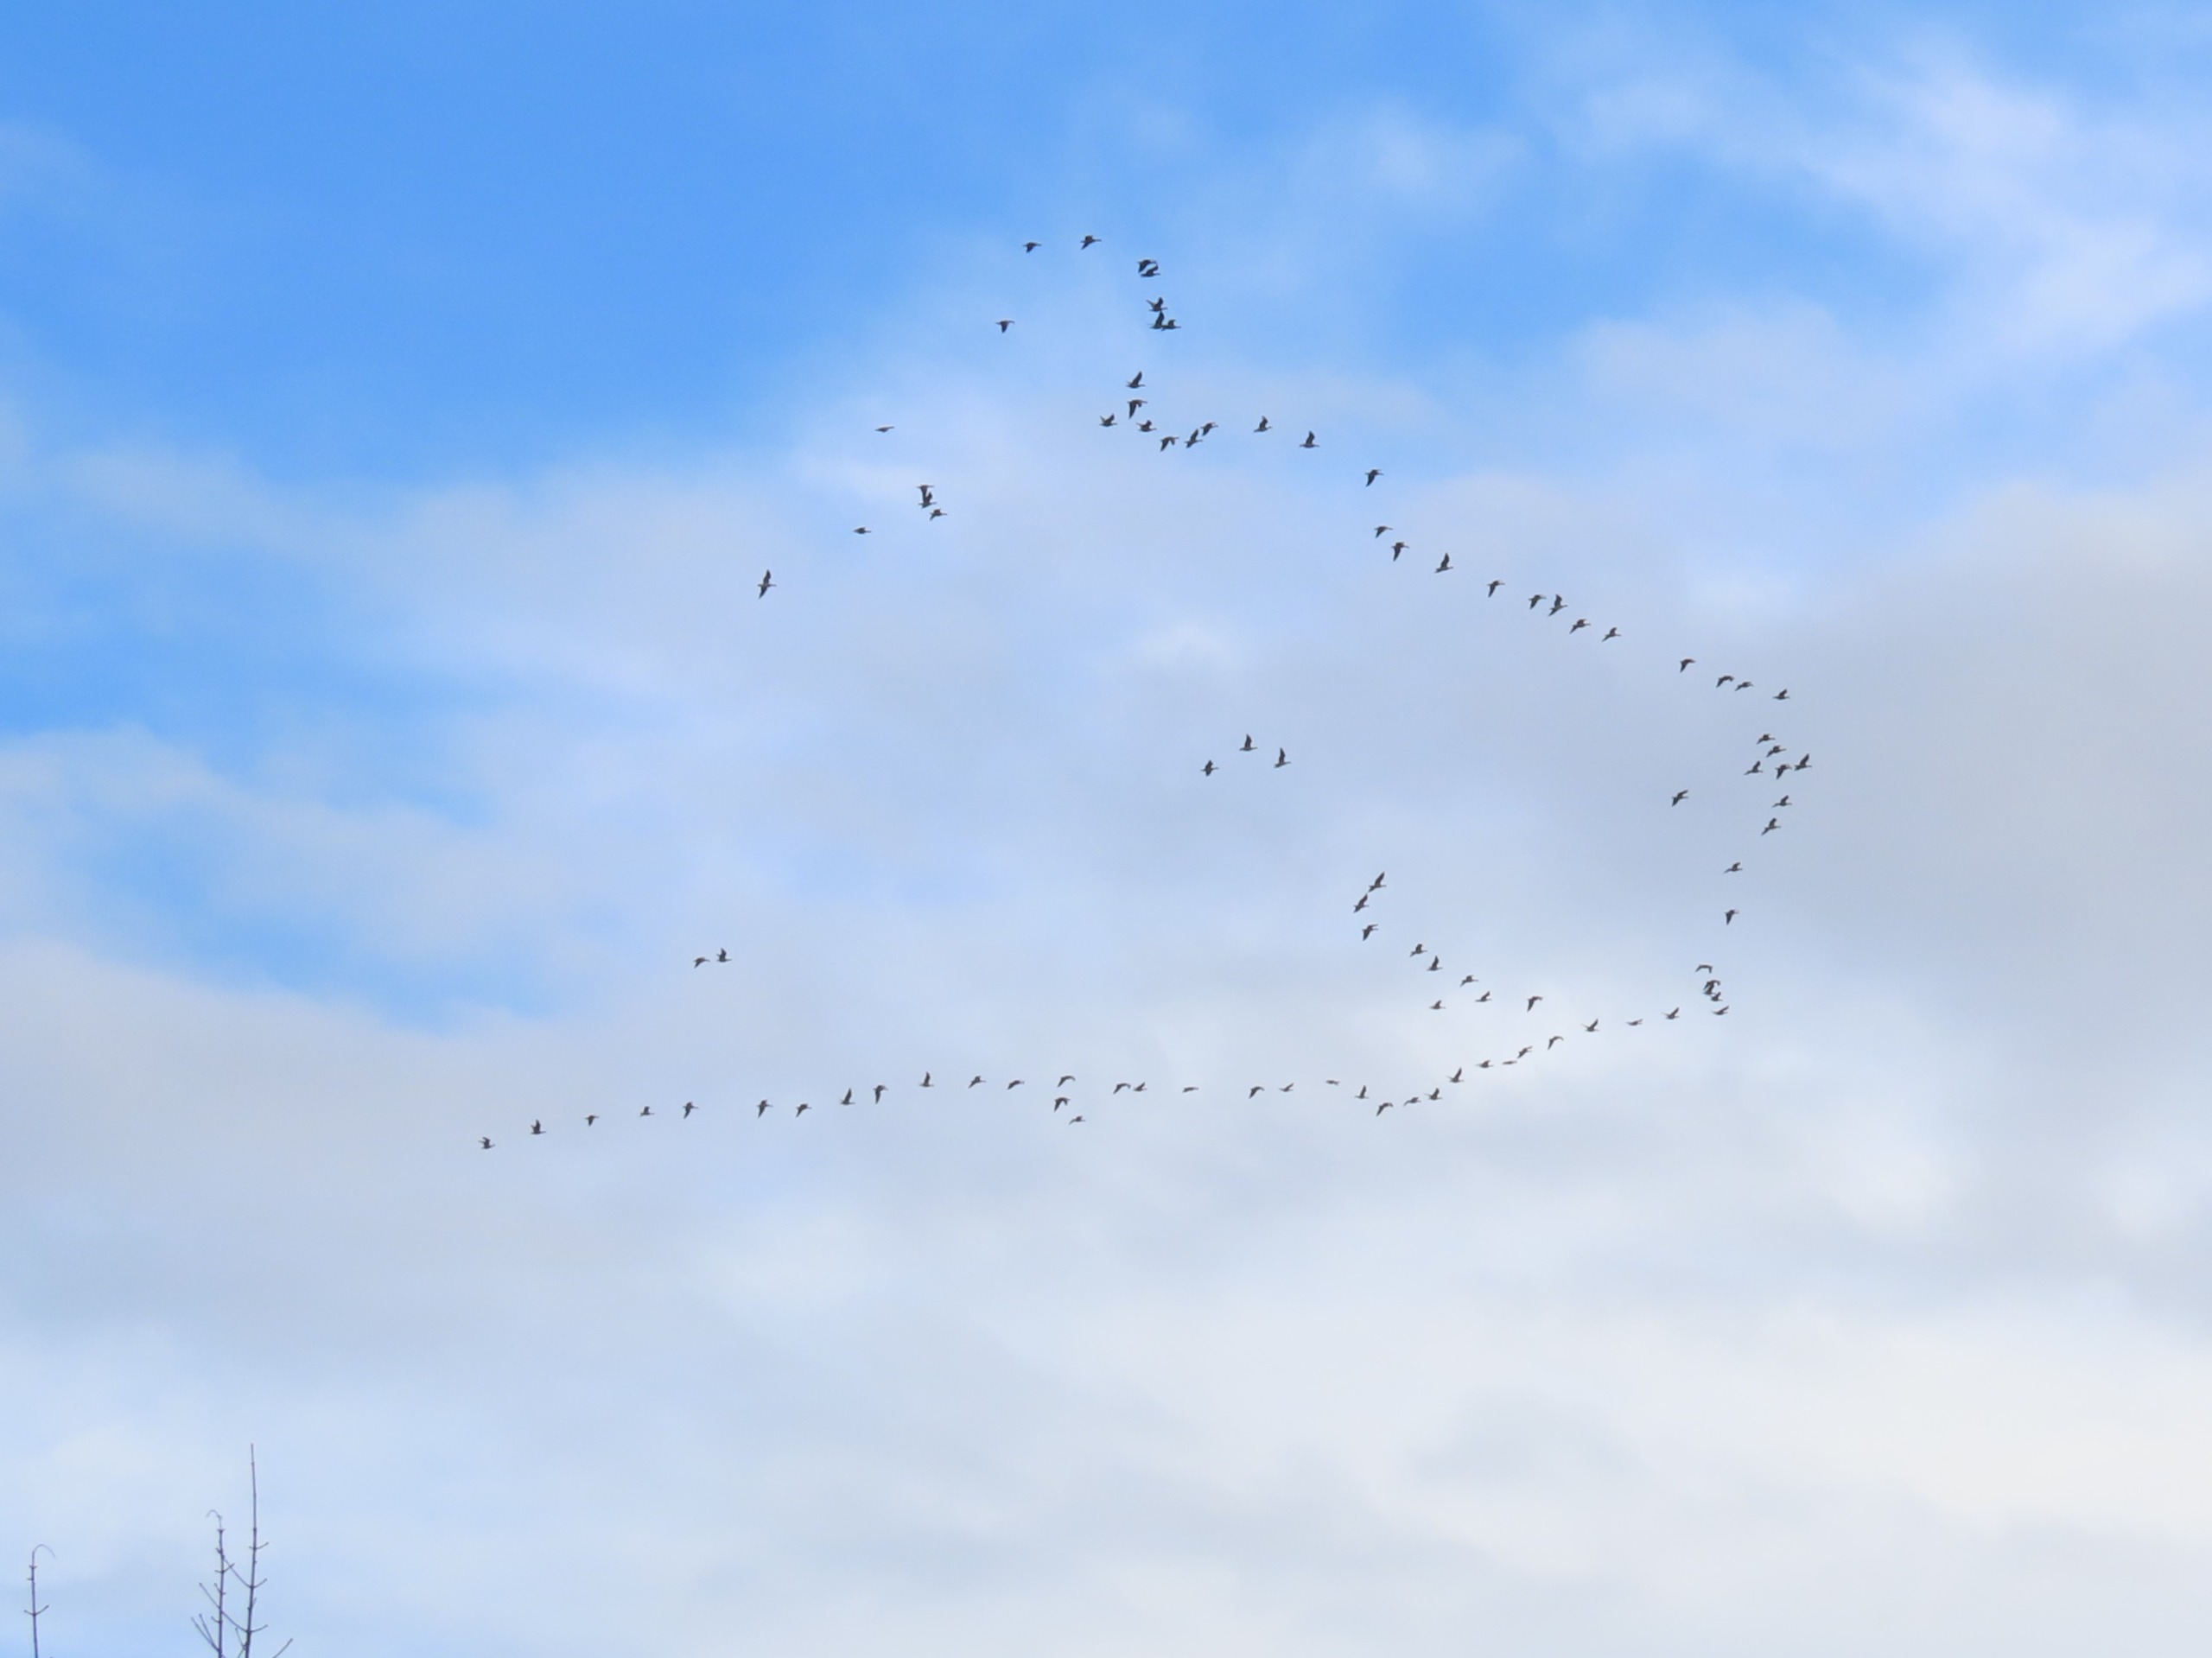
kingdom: Animalia
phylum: Chordata
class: Aves
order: Anseriformes
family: Anatidae
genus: Branta
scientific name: Branta leucopsis
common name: Bramgås
